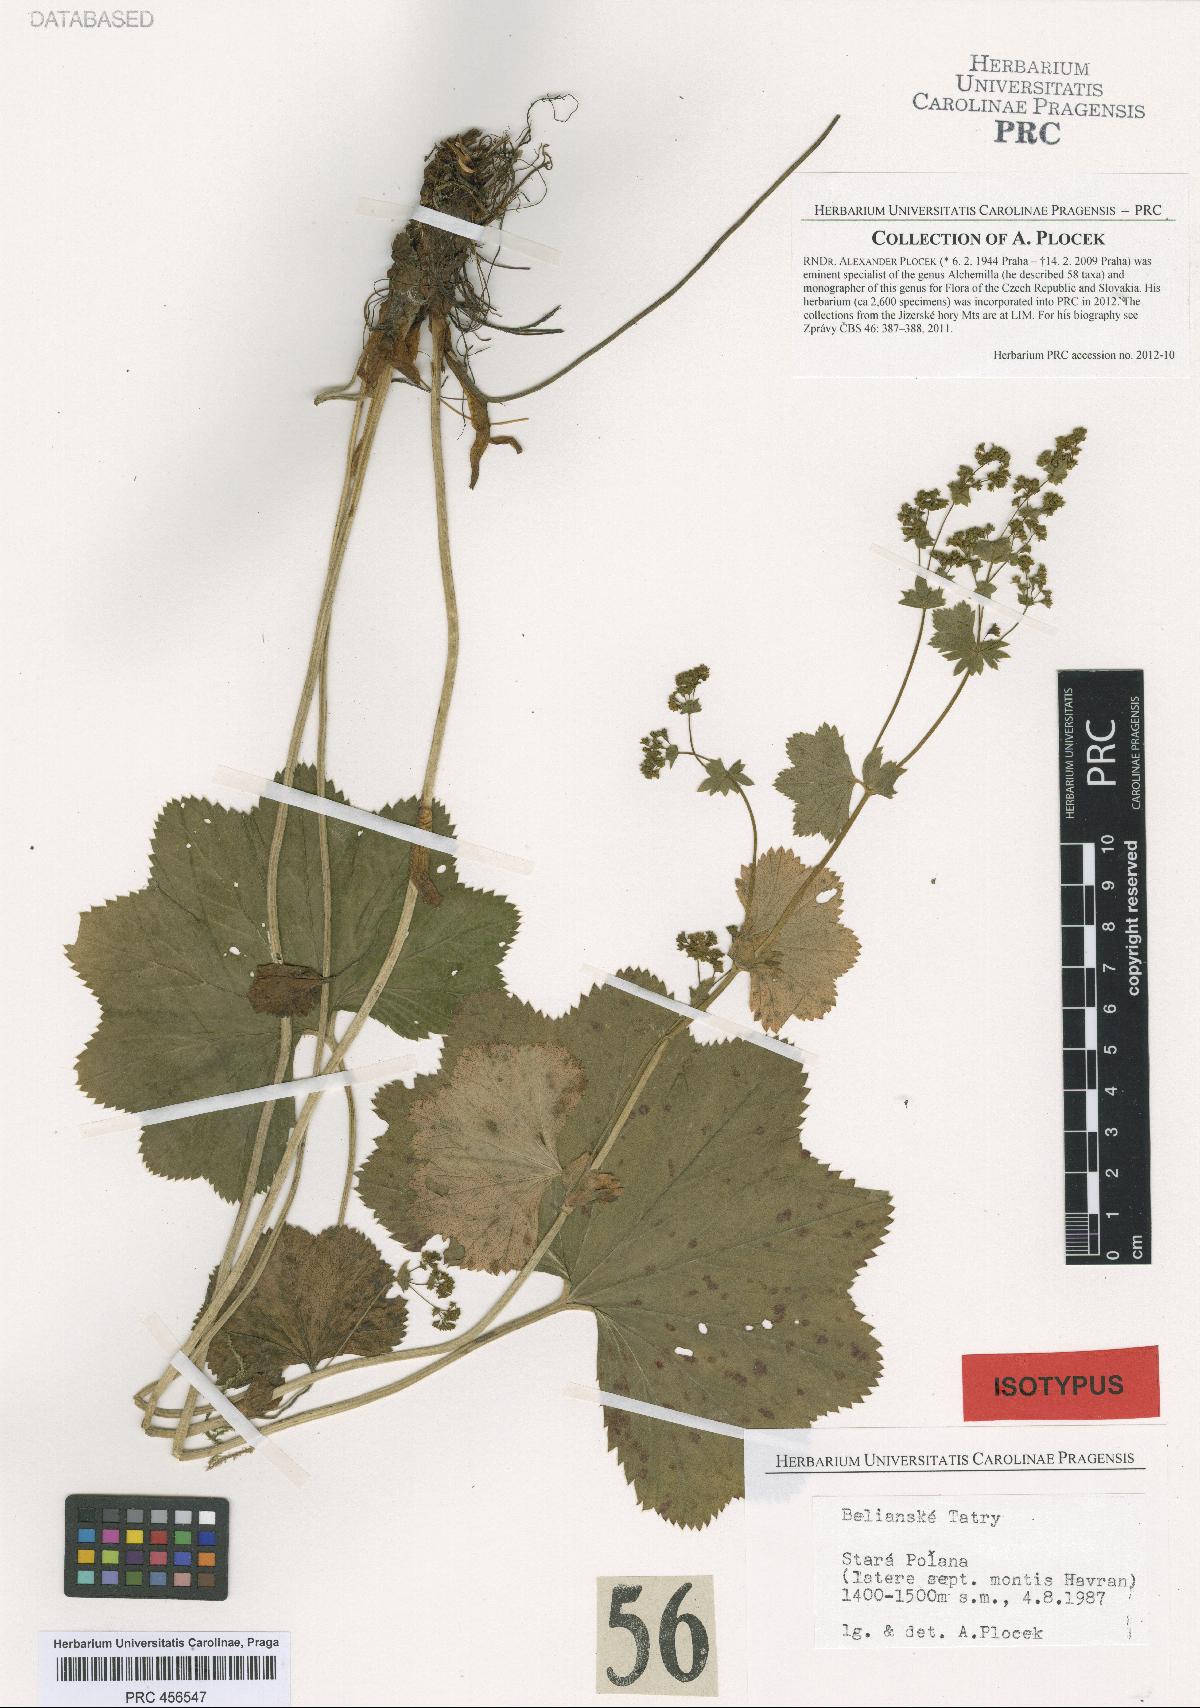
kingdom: Plantae
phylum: Tracheophyta
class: Magnoliopsida
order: Rosales
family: Rosaceae
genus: Alchemilla
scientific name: Alchemilla amauroptera
